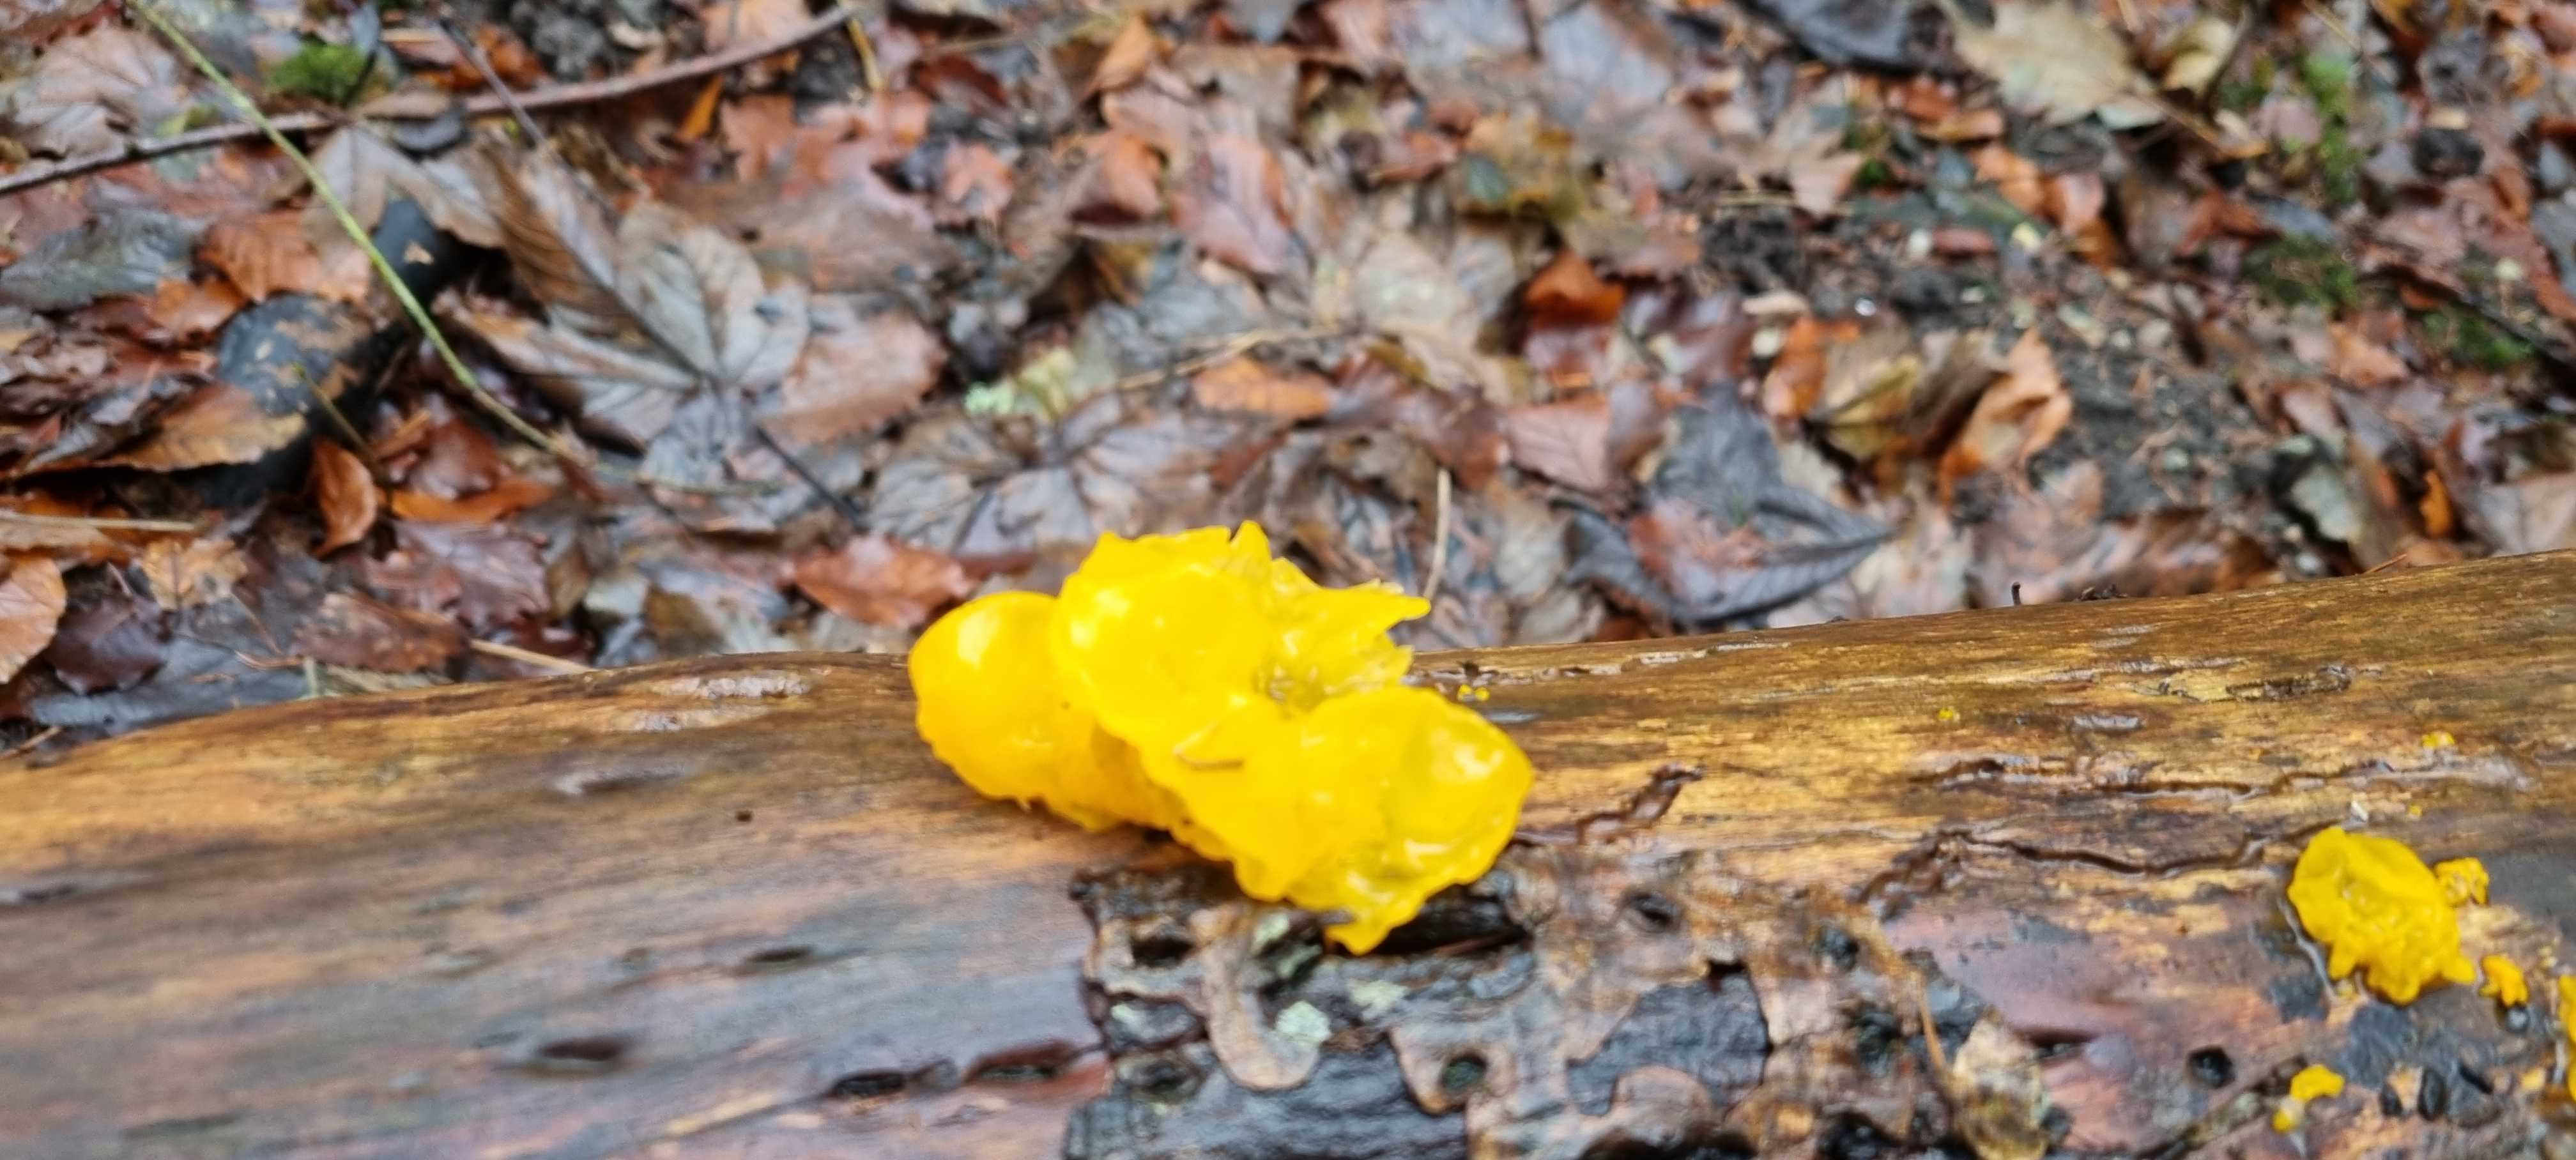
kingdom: Fungi
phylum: Basidiomycota
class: Tremellomycetes
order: Tremellales
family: Tremellaceae
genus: Tremella
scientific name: Tremella mesenterica
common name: gul bævresvamp
